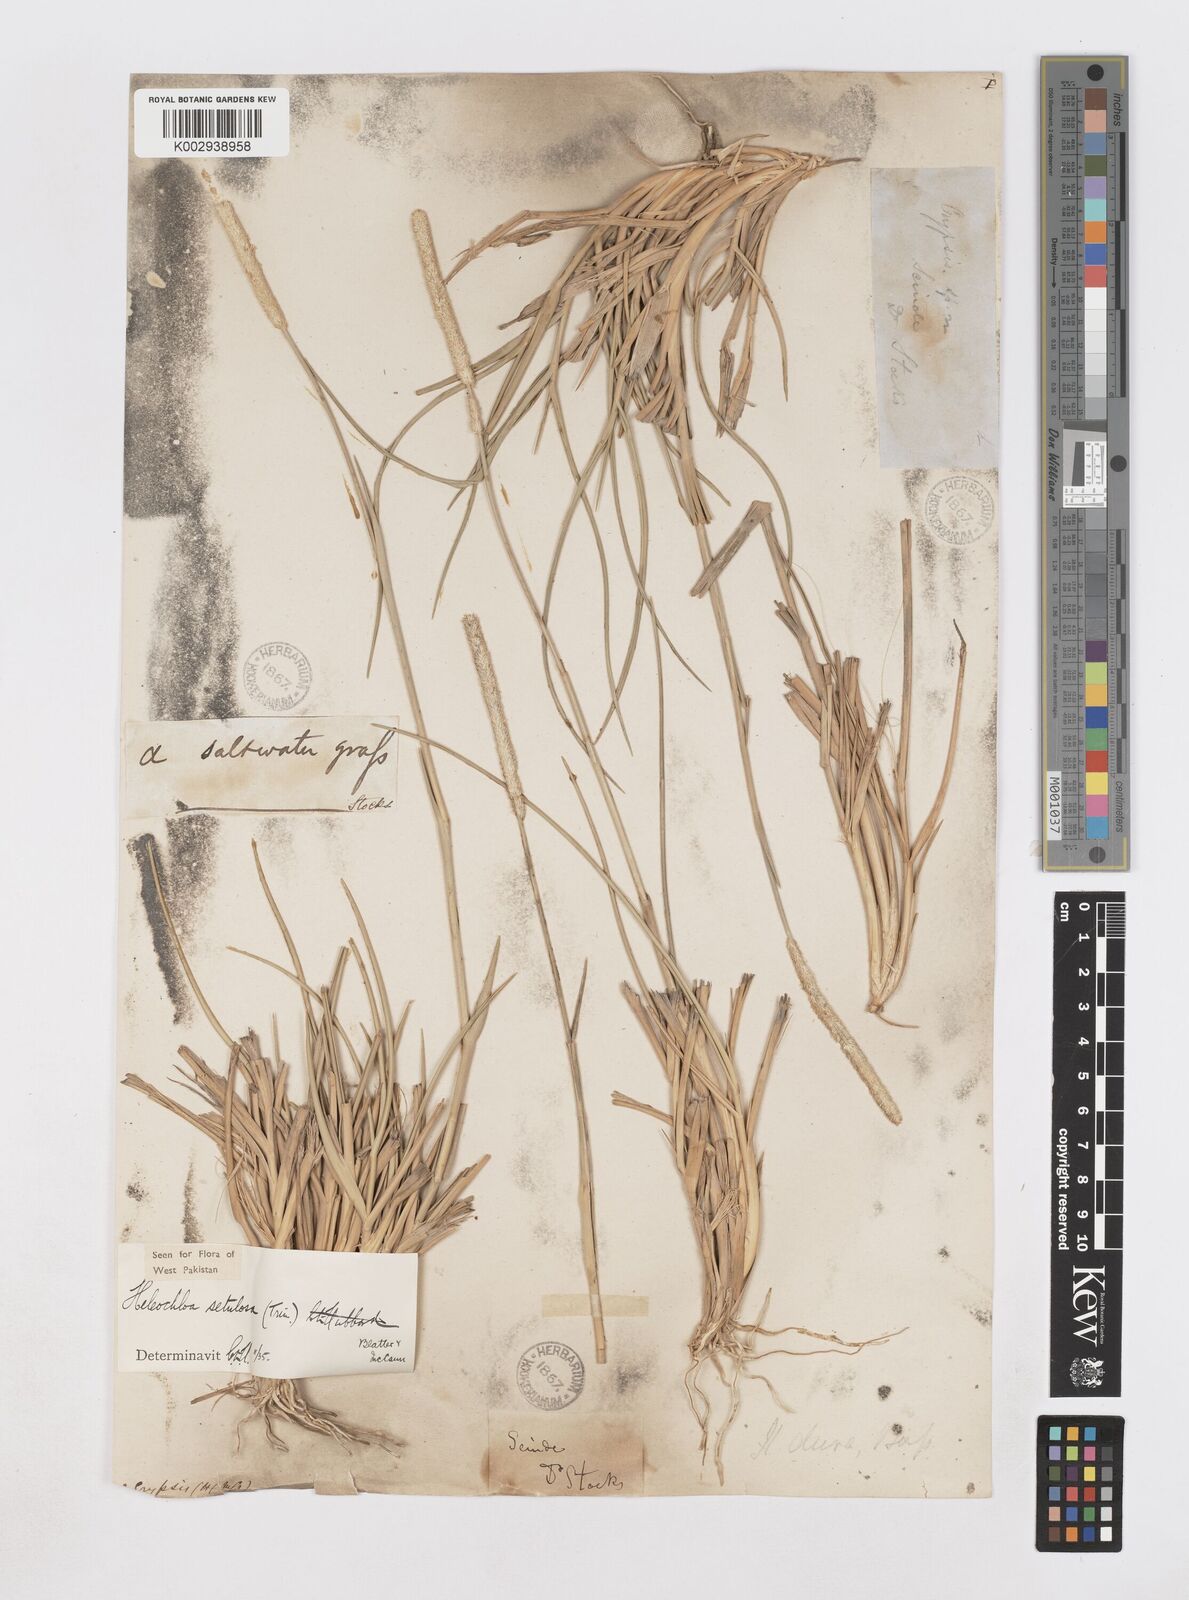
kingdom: Plantae
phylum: Tracheophyta
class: Liliopsida
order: Poales
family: Poaceae
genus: Urochondra
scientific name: Urochondra setulosa
